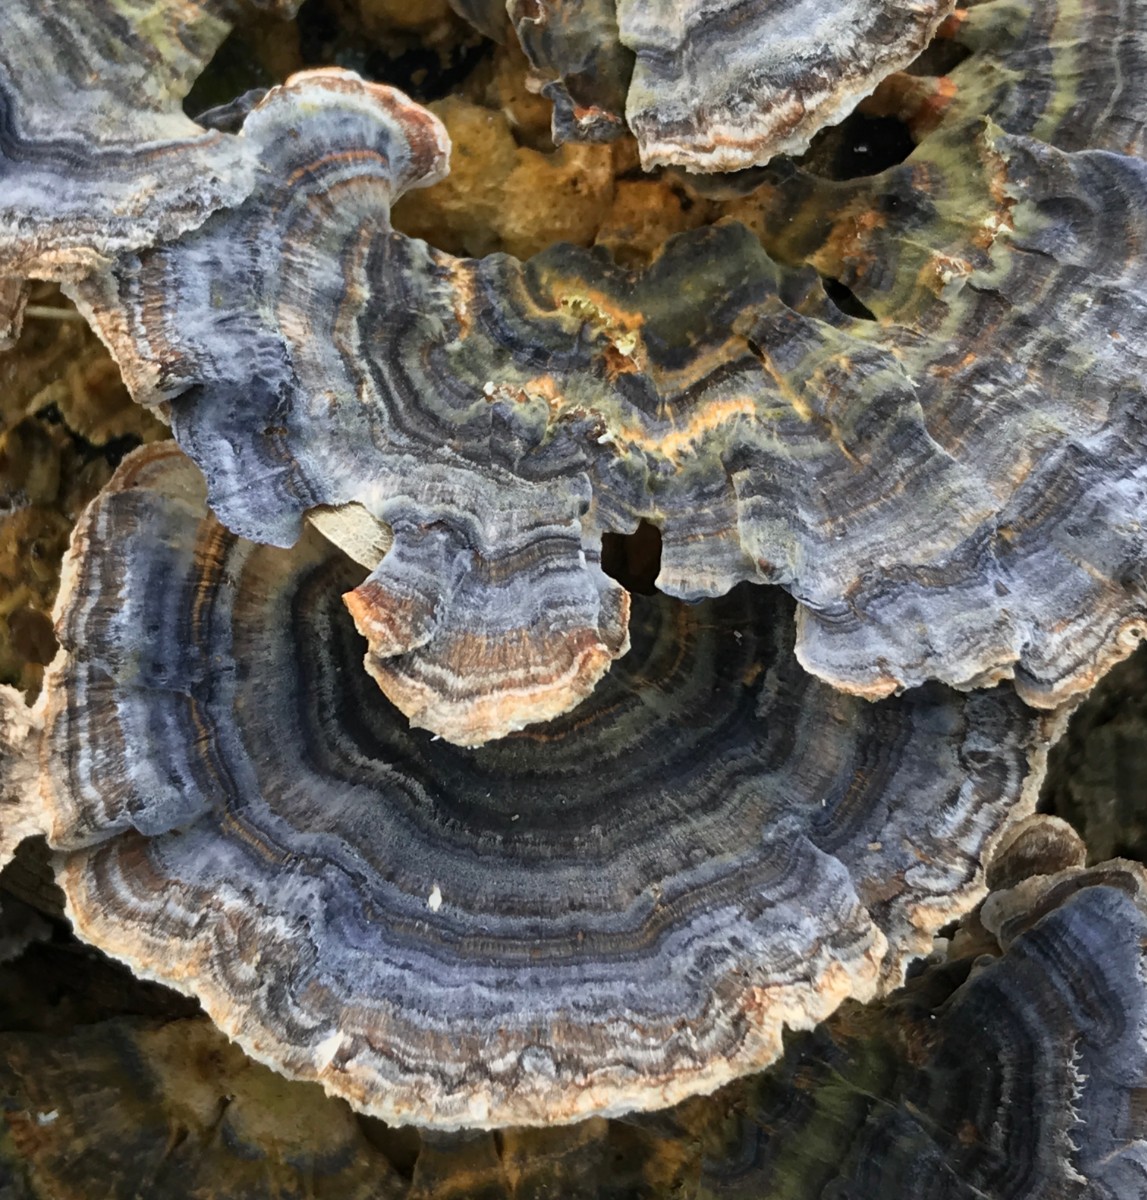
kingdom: Fungi
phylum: Basidiomycota
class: Agaricomycetes
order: Polyporales
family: Polyporaceae
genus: Trametes
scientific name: Trametes versicolor
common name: broget læderporesvamp
